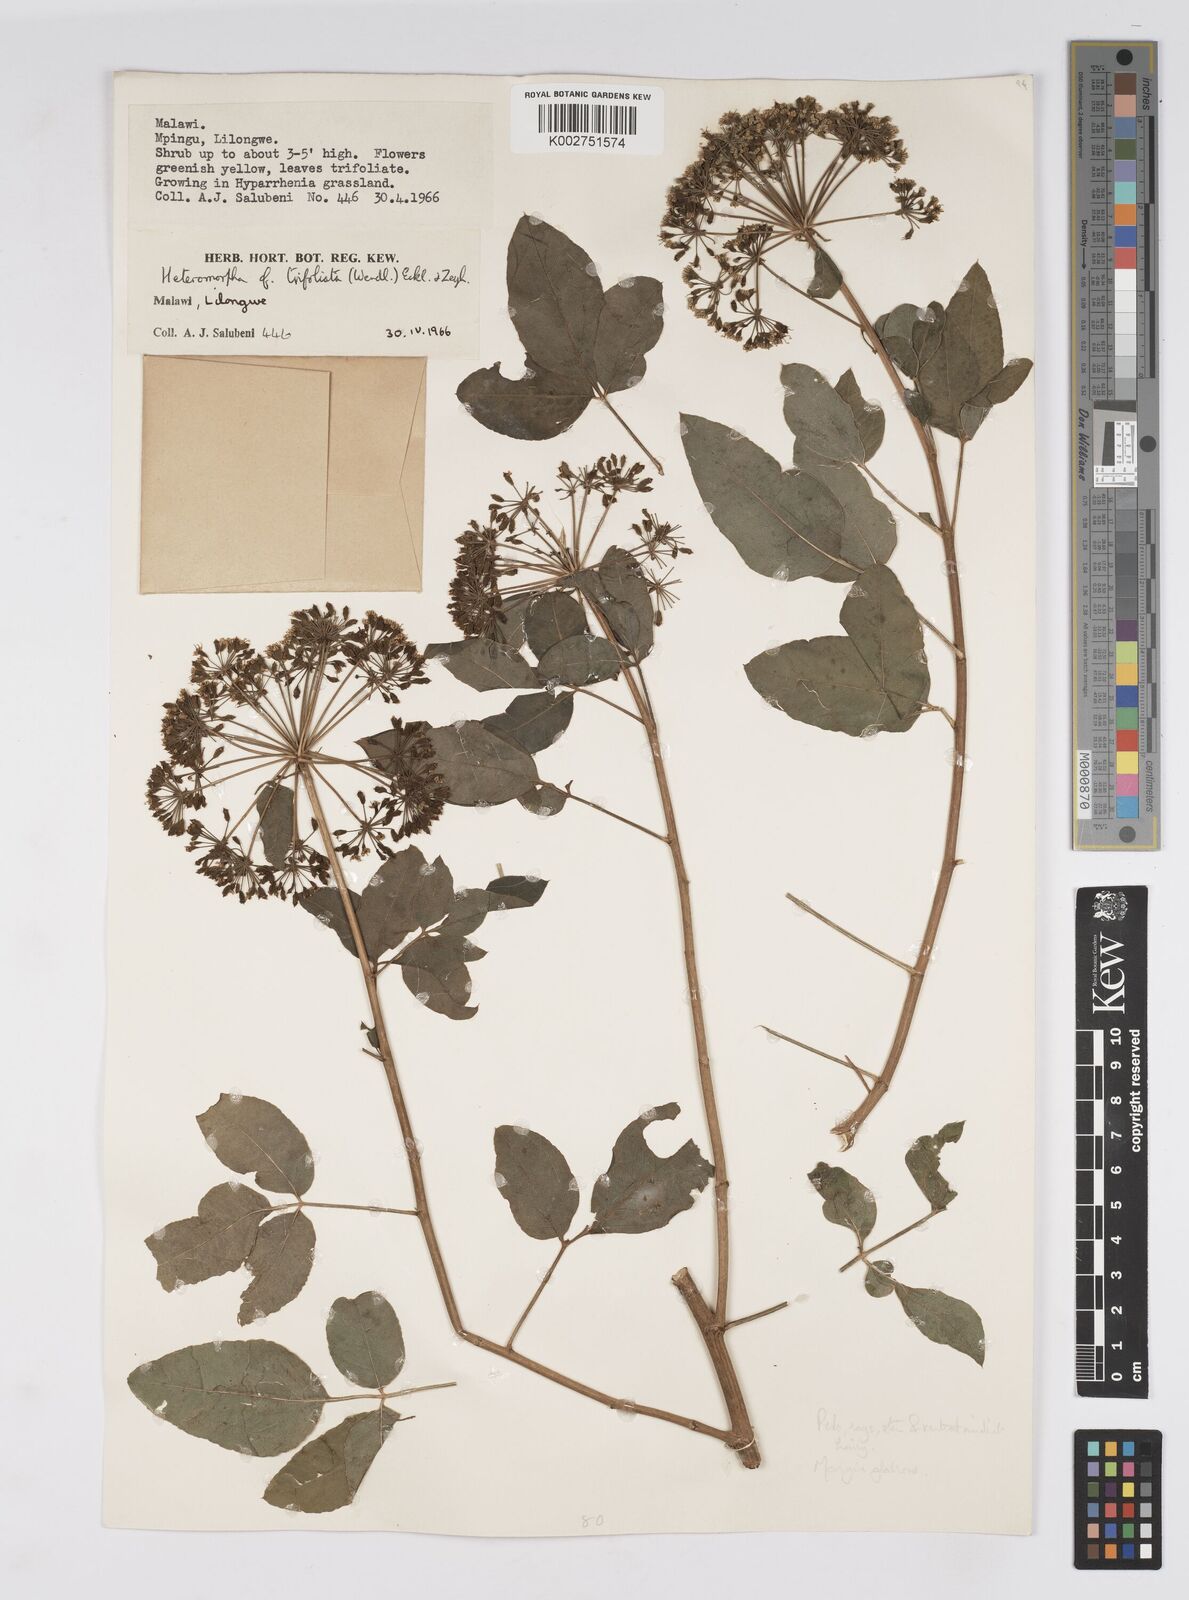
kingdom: Plantae
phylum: Tracheophyta
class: Magnoliopsida
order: Apiales
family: Apiaceae
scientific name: Apiaceae
